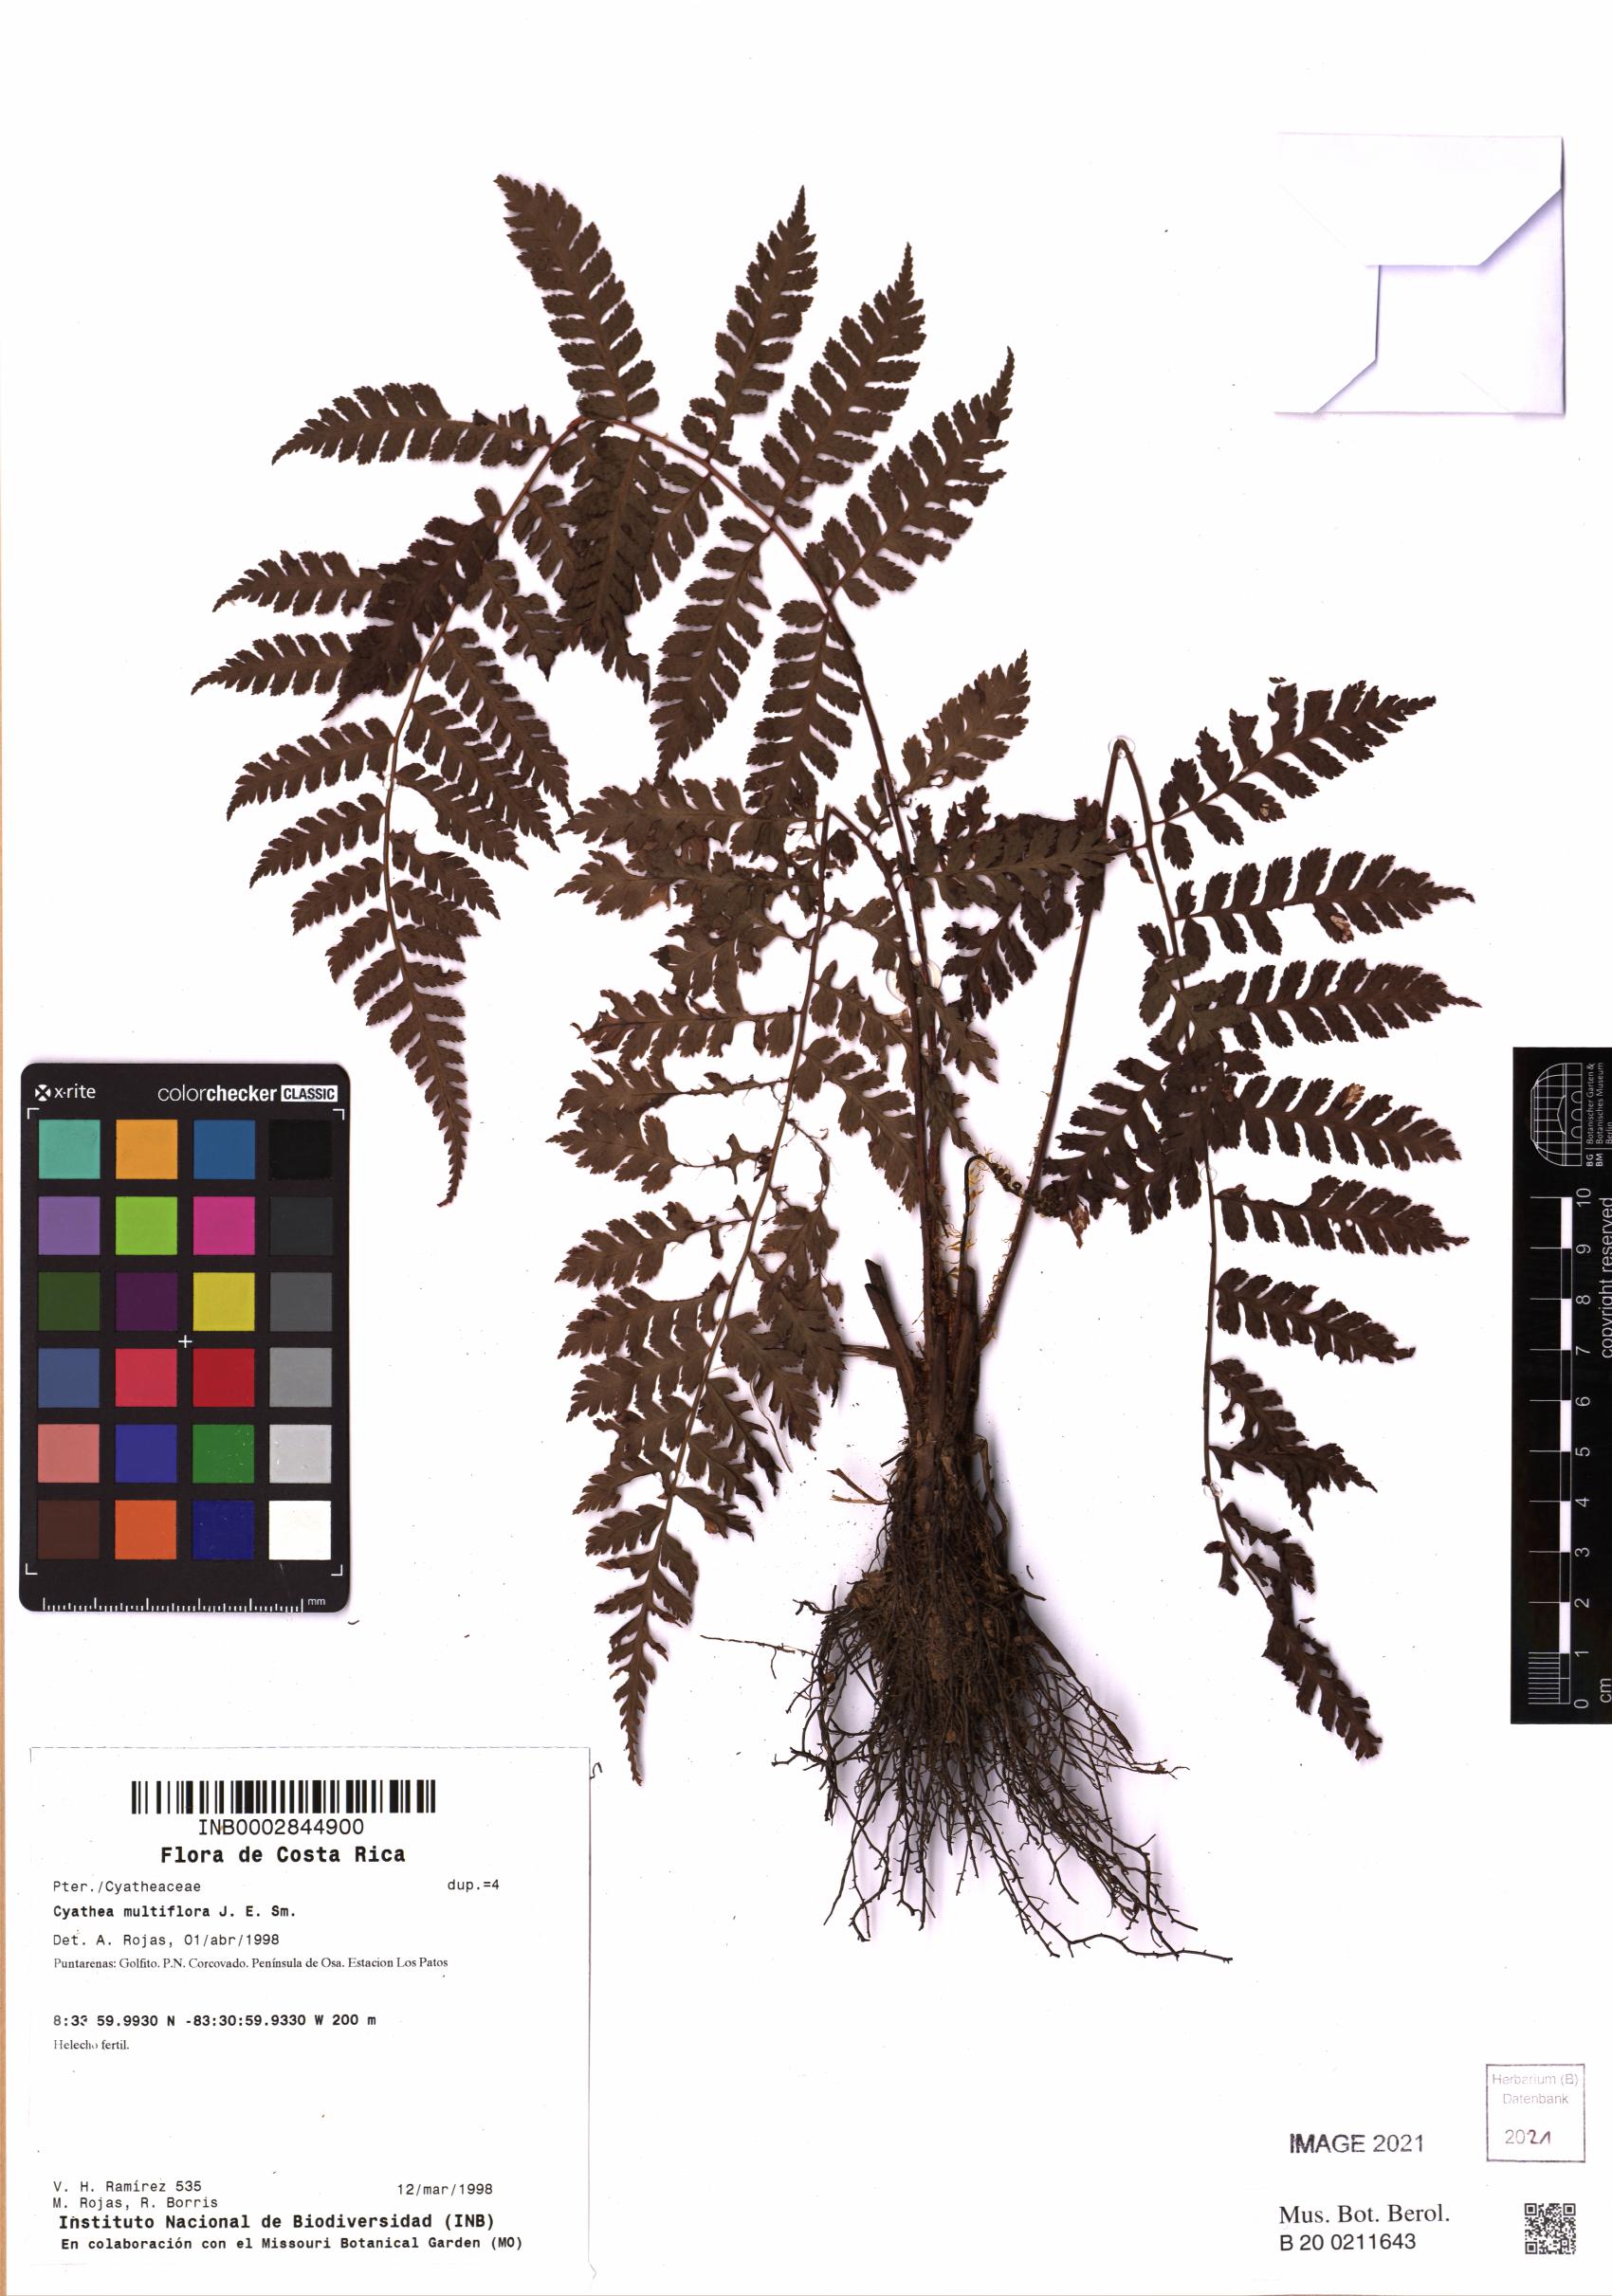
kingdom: Plantae
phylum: Tracheophyta
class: Polypodiopsida
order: Cyatheales
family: Cyatheaceae
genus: Cyathea
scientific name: Cyathea multiflora
